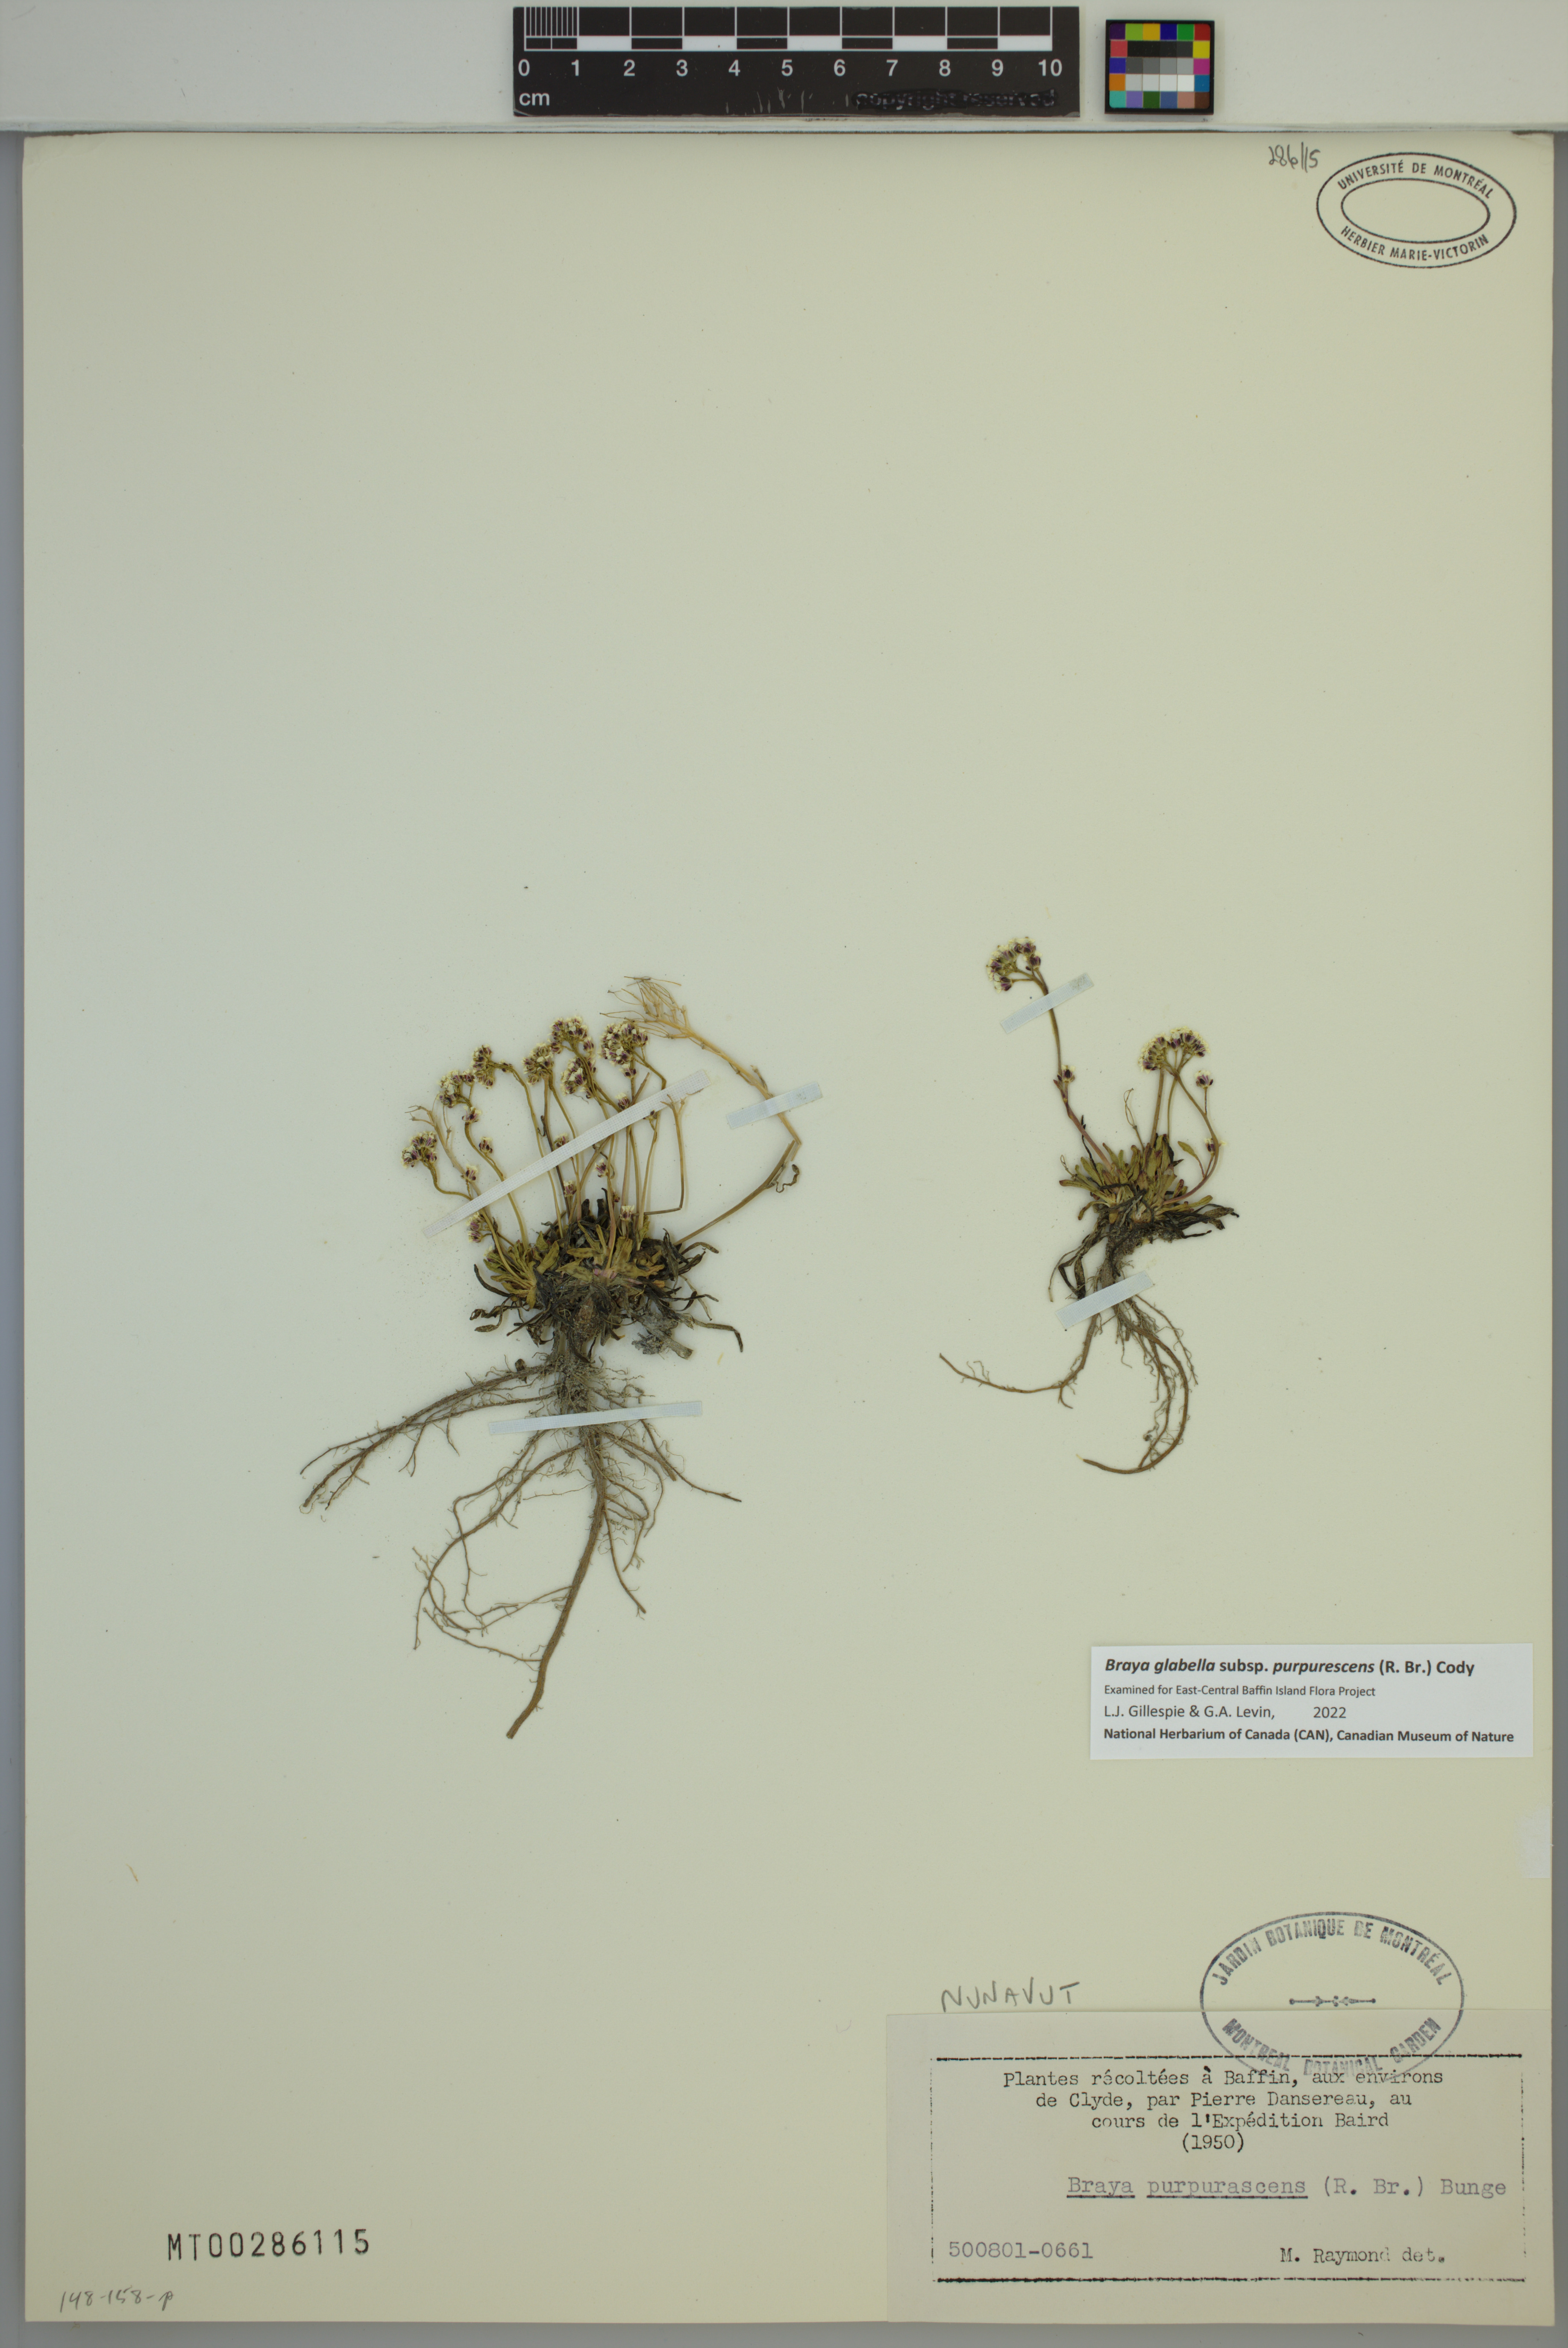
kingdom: Plantae
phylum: Tracheophyta
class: Magnoliopsida
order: Brassicales
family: Brassicaceae
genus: Braya
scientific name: Braya purpurascens
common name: Alpine braya
